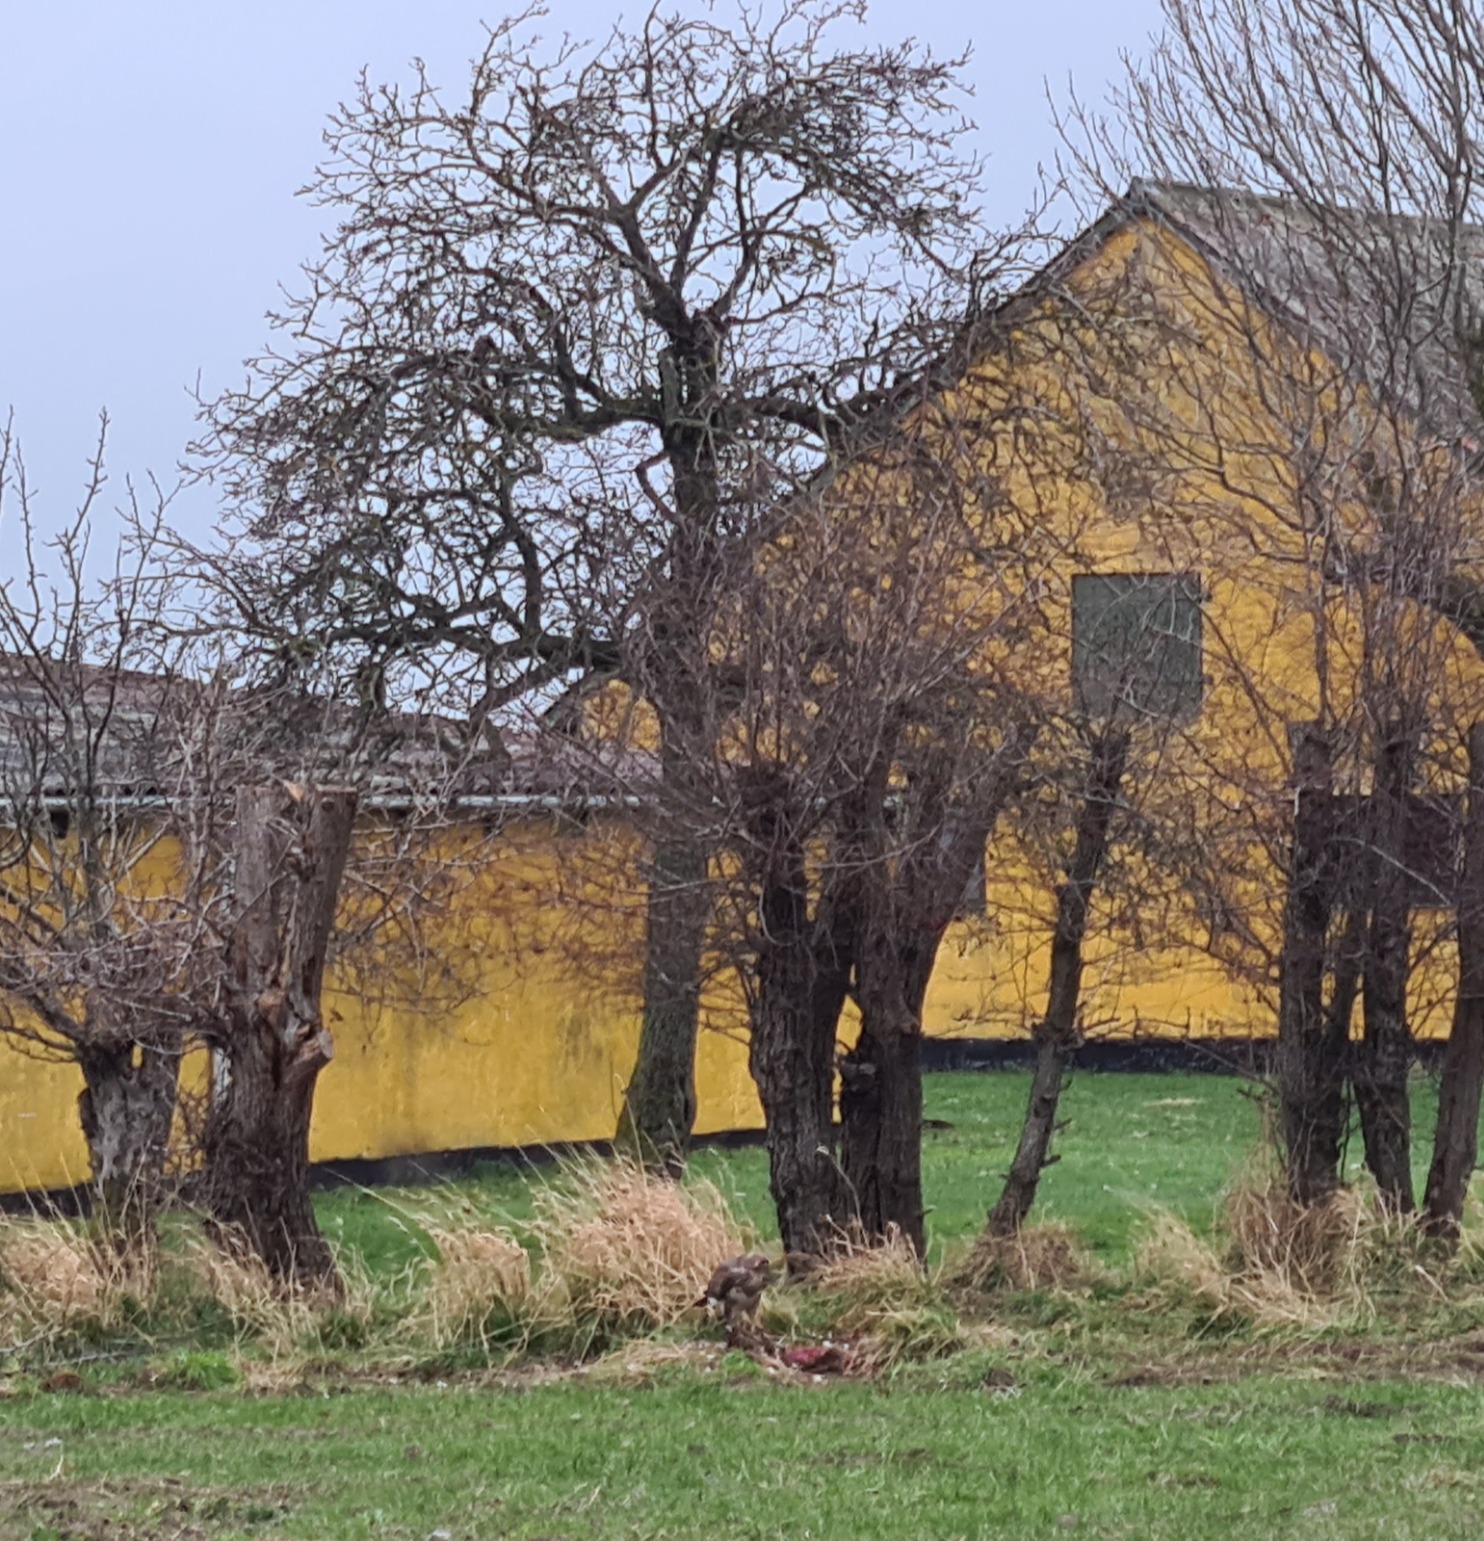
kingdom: Animalia
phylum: Chordata
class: Aves
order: Accipitriformes
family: Accipitridae
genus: Buteo
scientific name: Buteo buteo
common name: Musvåge
